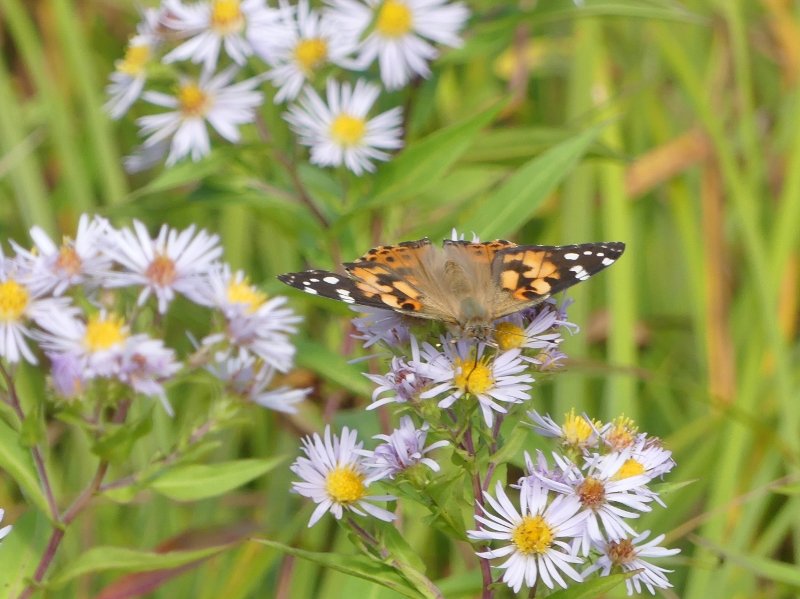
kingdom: Animalia
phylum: Arthropoda
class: Insecta
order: Lepidoptera
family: Nymphalidae
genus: Vanessa
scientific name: Vanessa cardui
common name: Painted Lady
